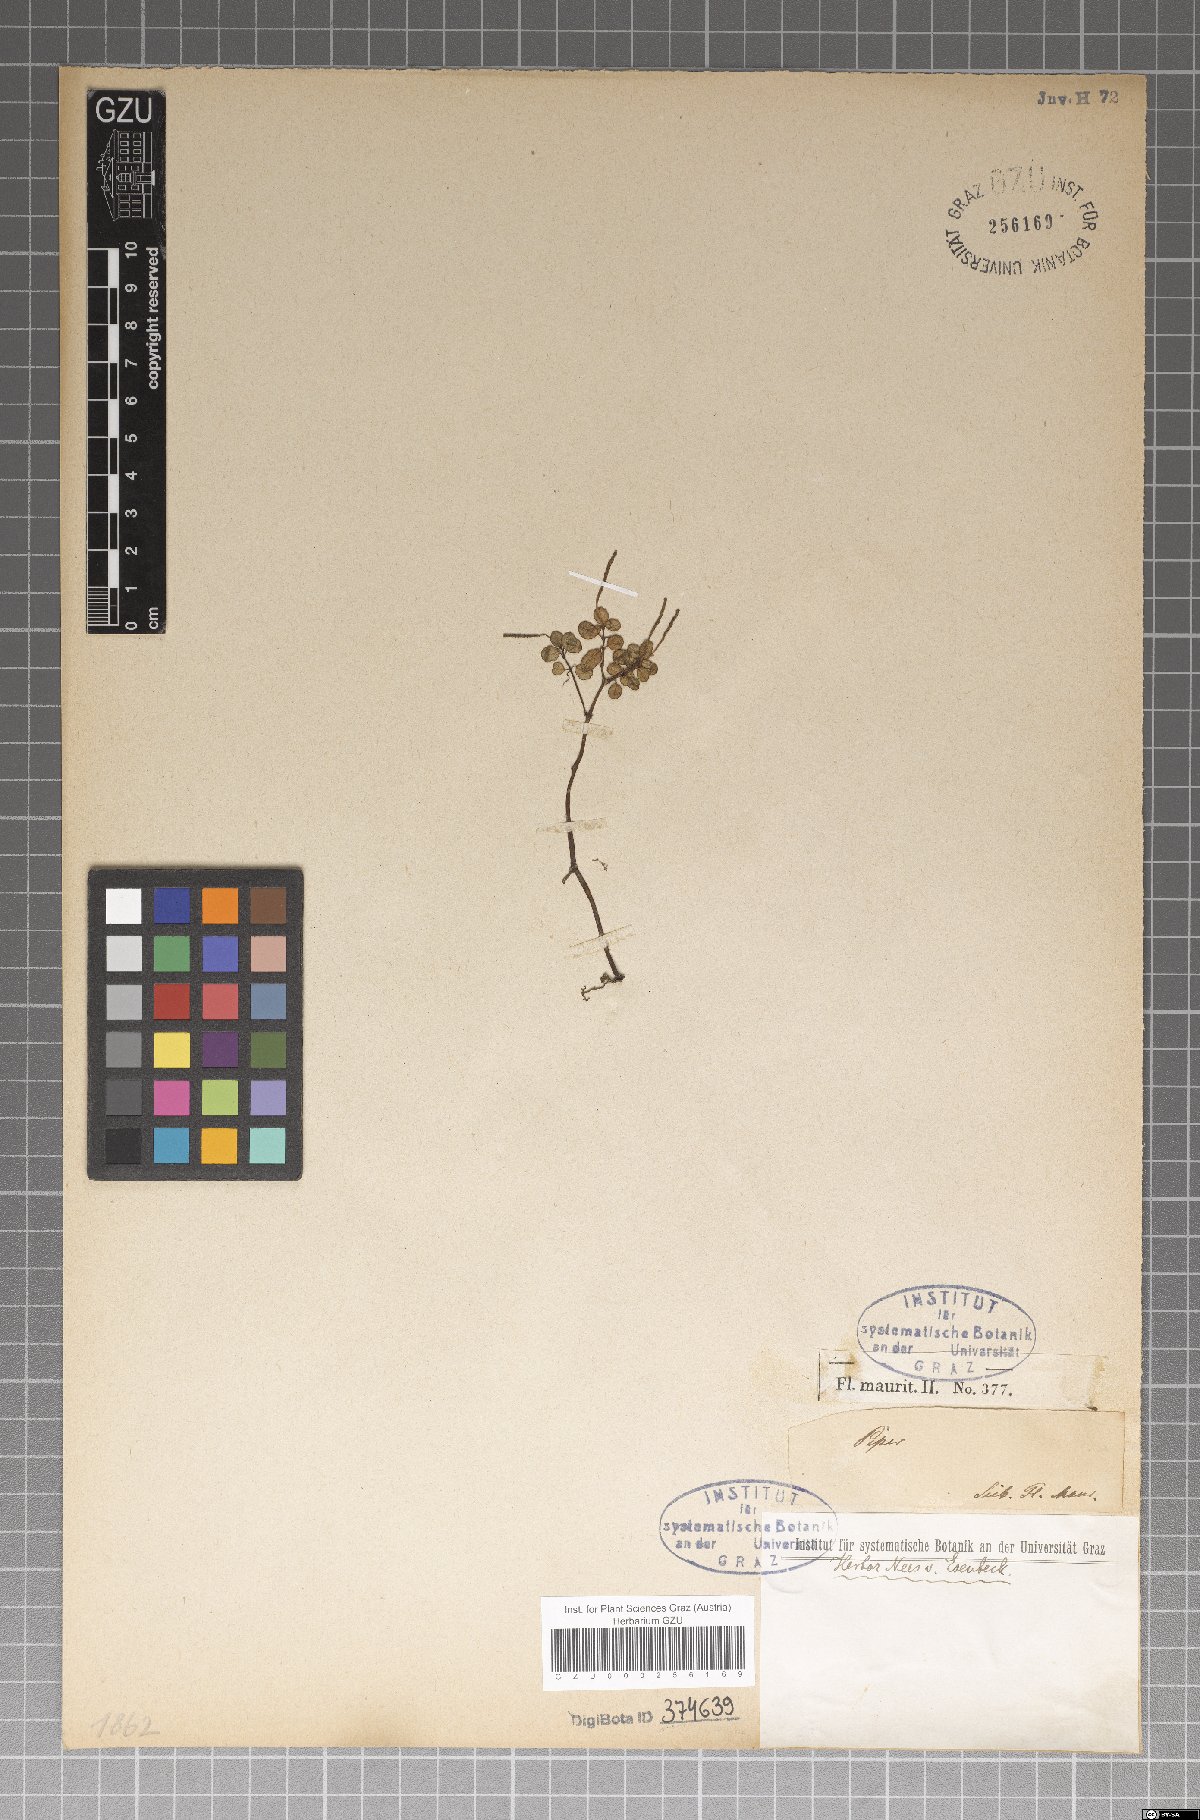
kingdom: Plantae
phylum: Tracheophyta
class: Magnoliopsida
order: Piperales
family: Piperaceae
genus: Piper
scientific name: Piper
